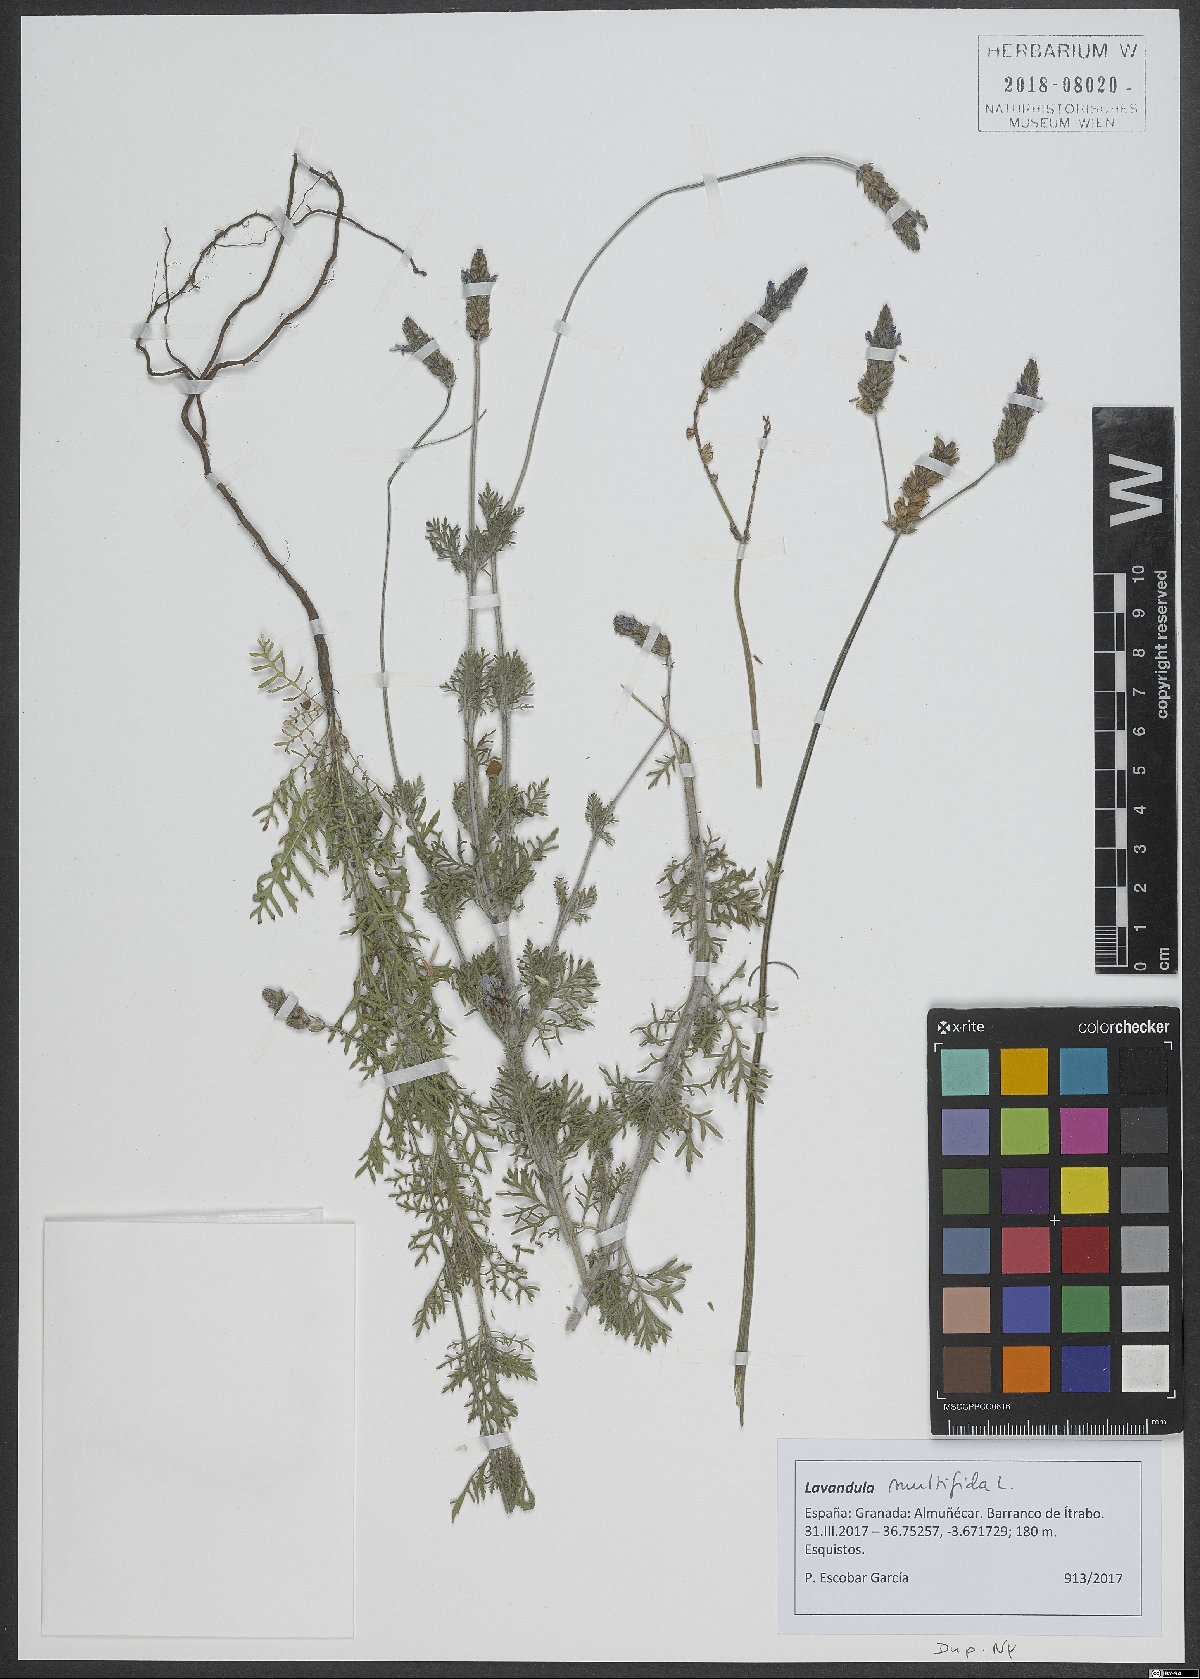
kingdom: Plantae
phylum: Tracheophyta
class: Magnoliopsida
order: Lamiales
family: Lamiaceae
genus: Lavandula
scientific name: Lavandula multifida
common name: Fern-leaf lavender
